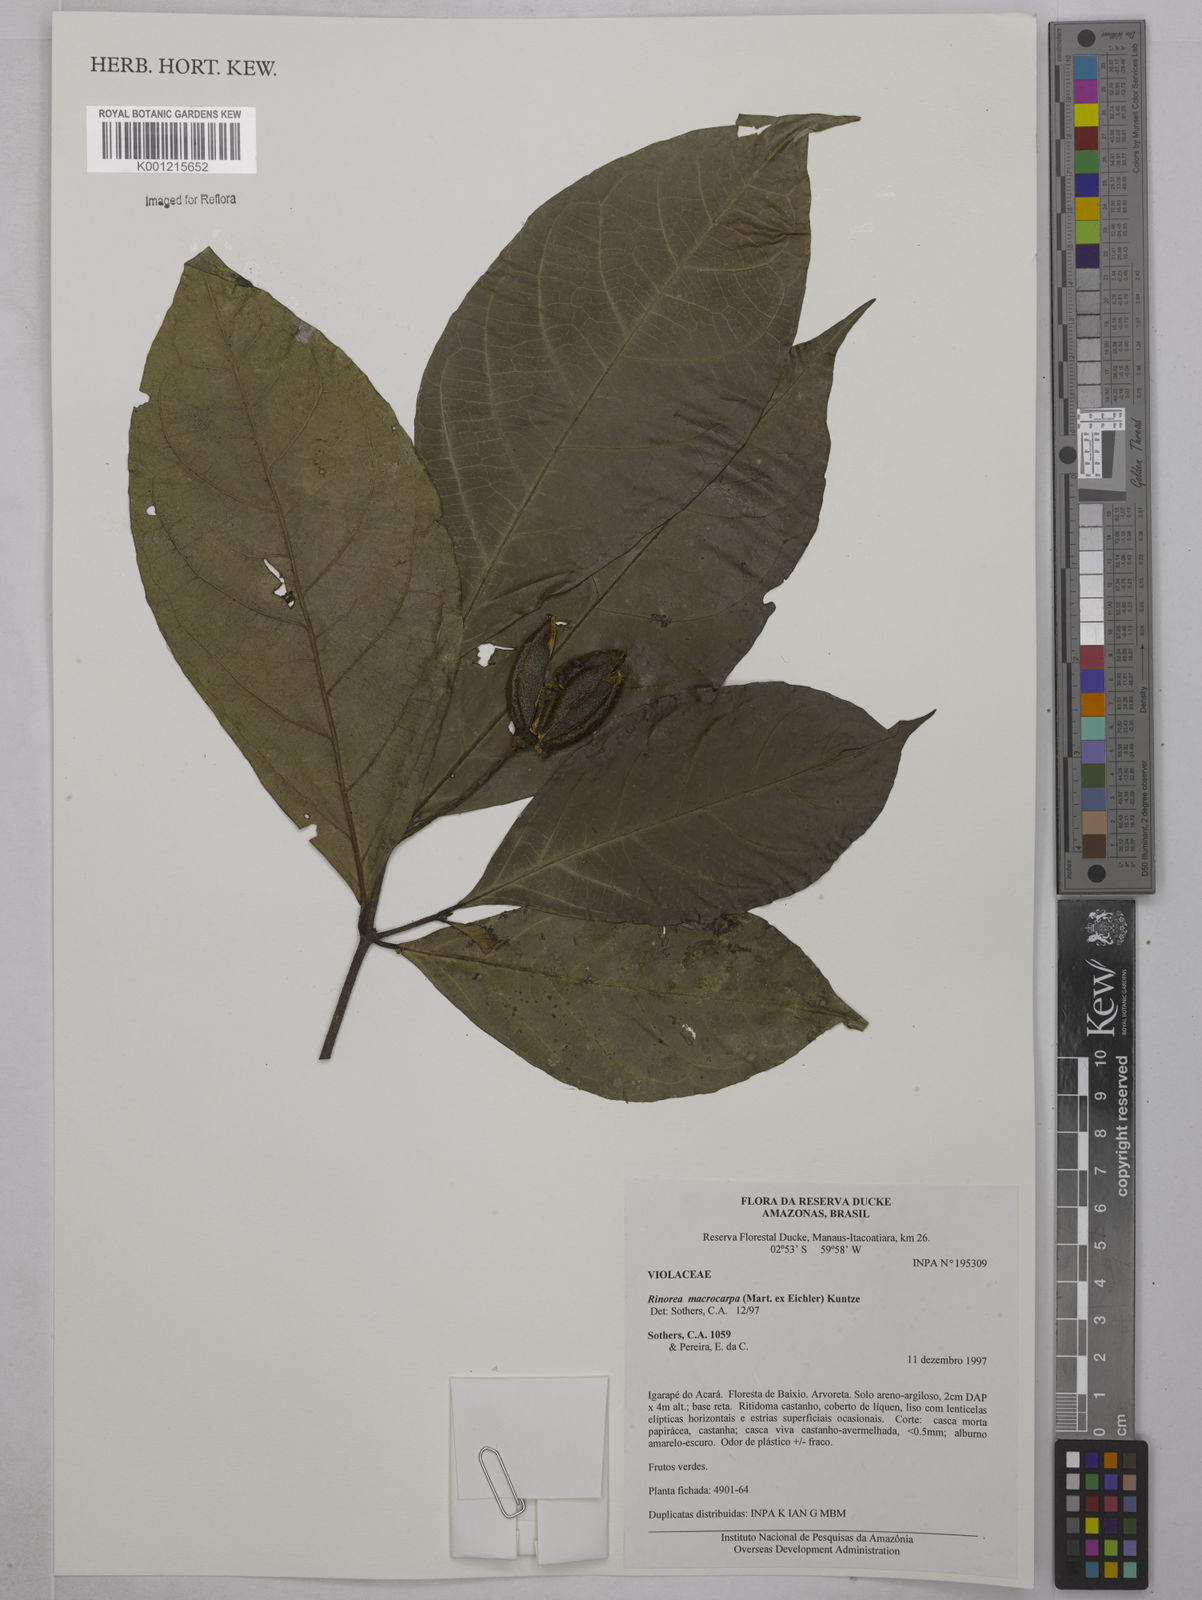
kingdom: Plantae
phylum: Tracheophyta
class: Magnoliopsida
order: Malpighiales
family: Violaceae
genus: Rinorea
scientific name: Rinorea macrocarpa
